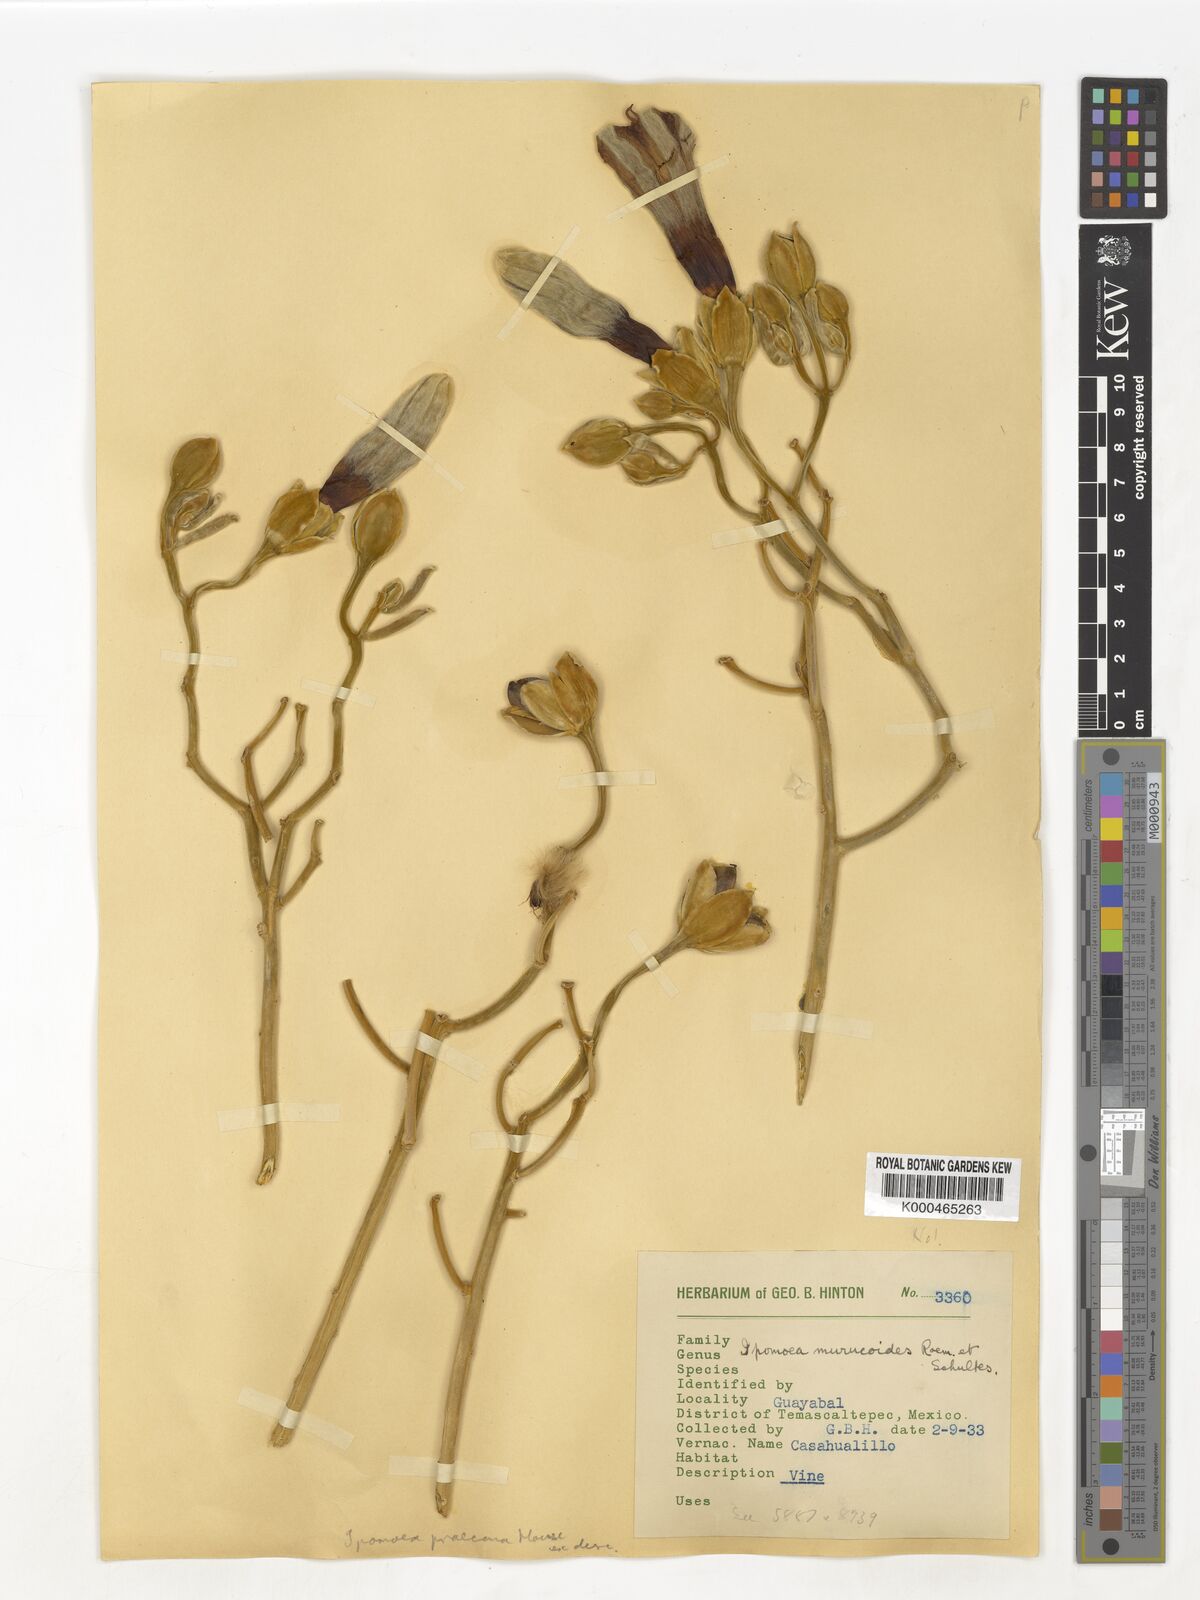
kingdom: Plantae
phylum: Tracheophyta
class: Magnoliopsida
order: Solanales
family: Convolvulaceae
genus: Ipomoea
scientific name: Ipomoea praecana
